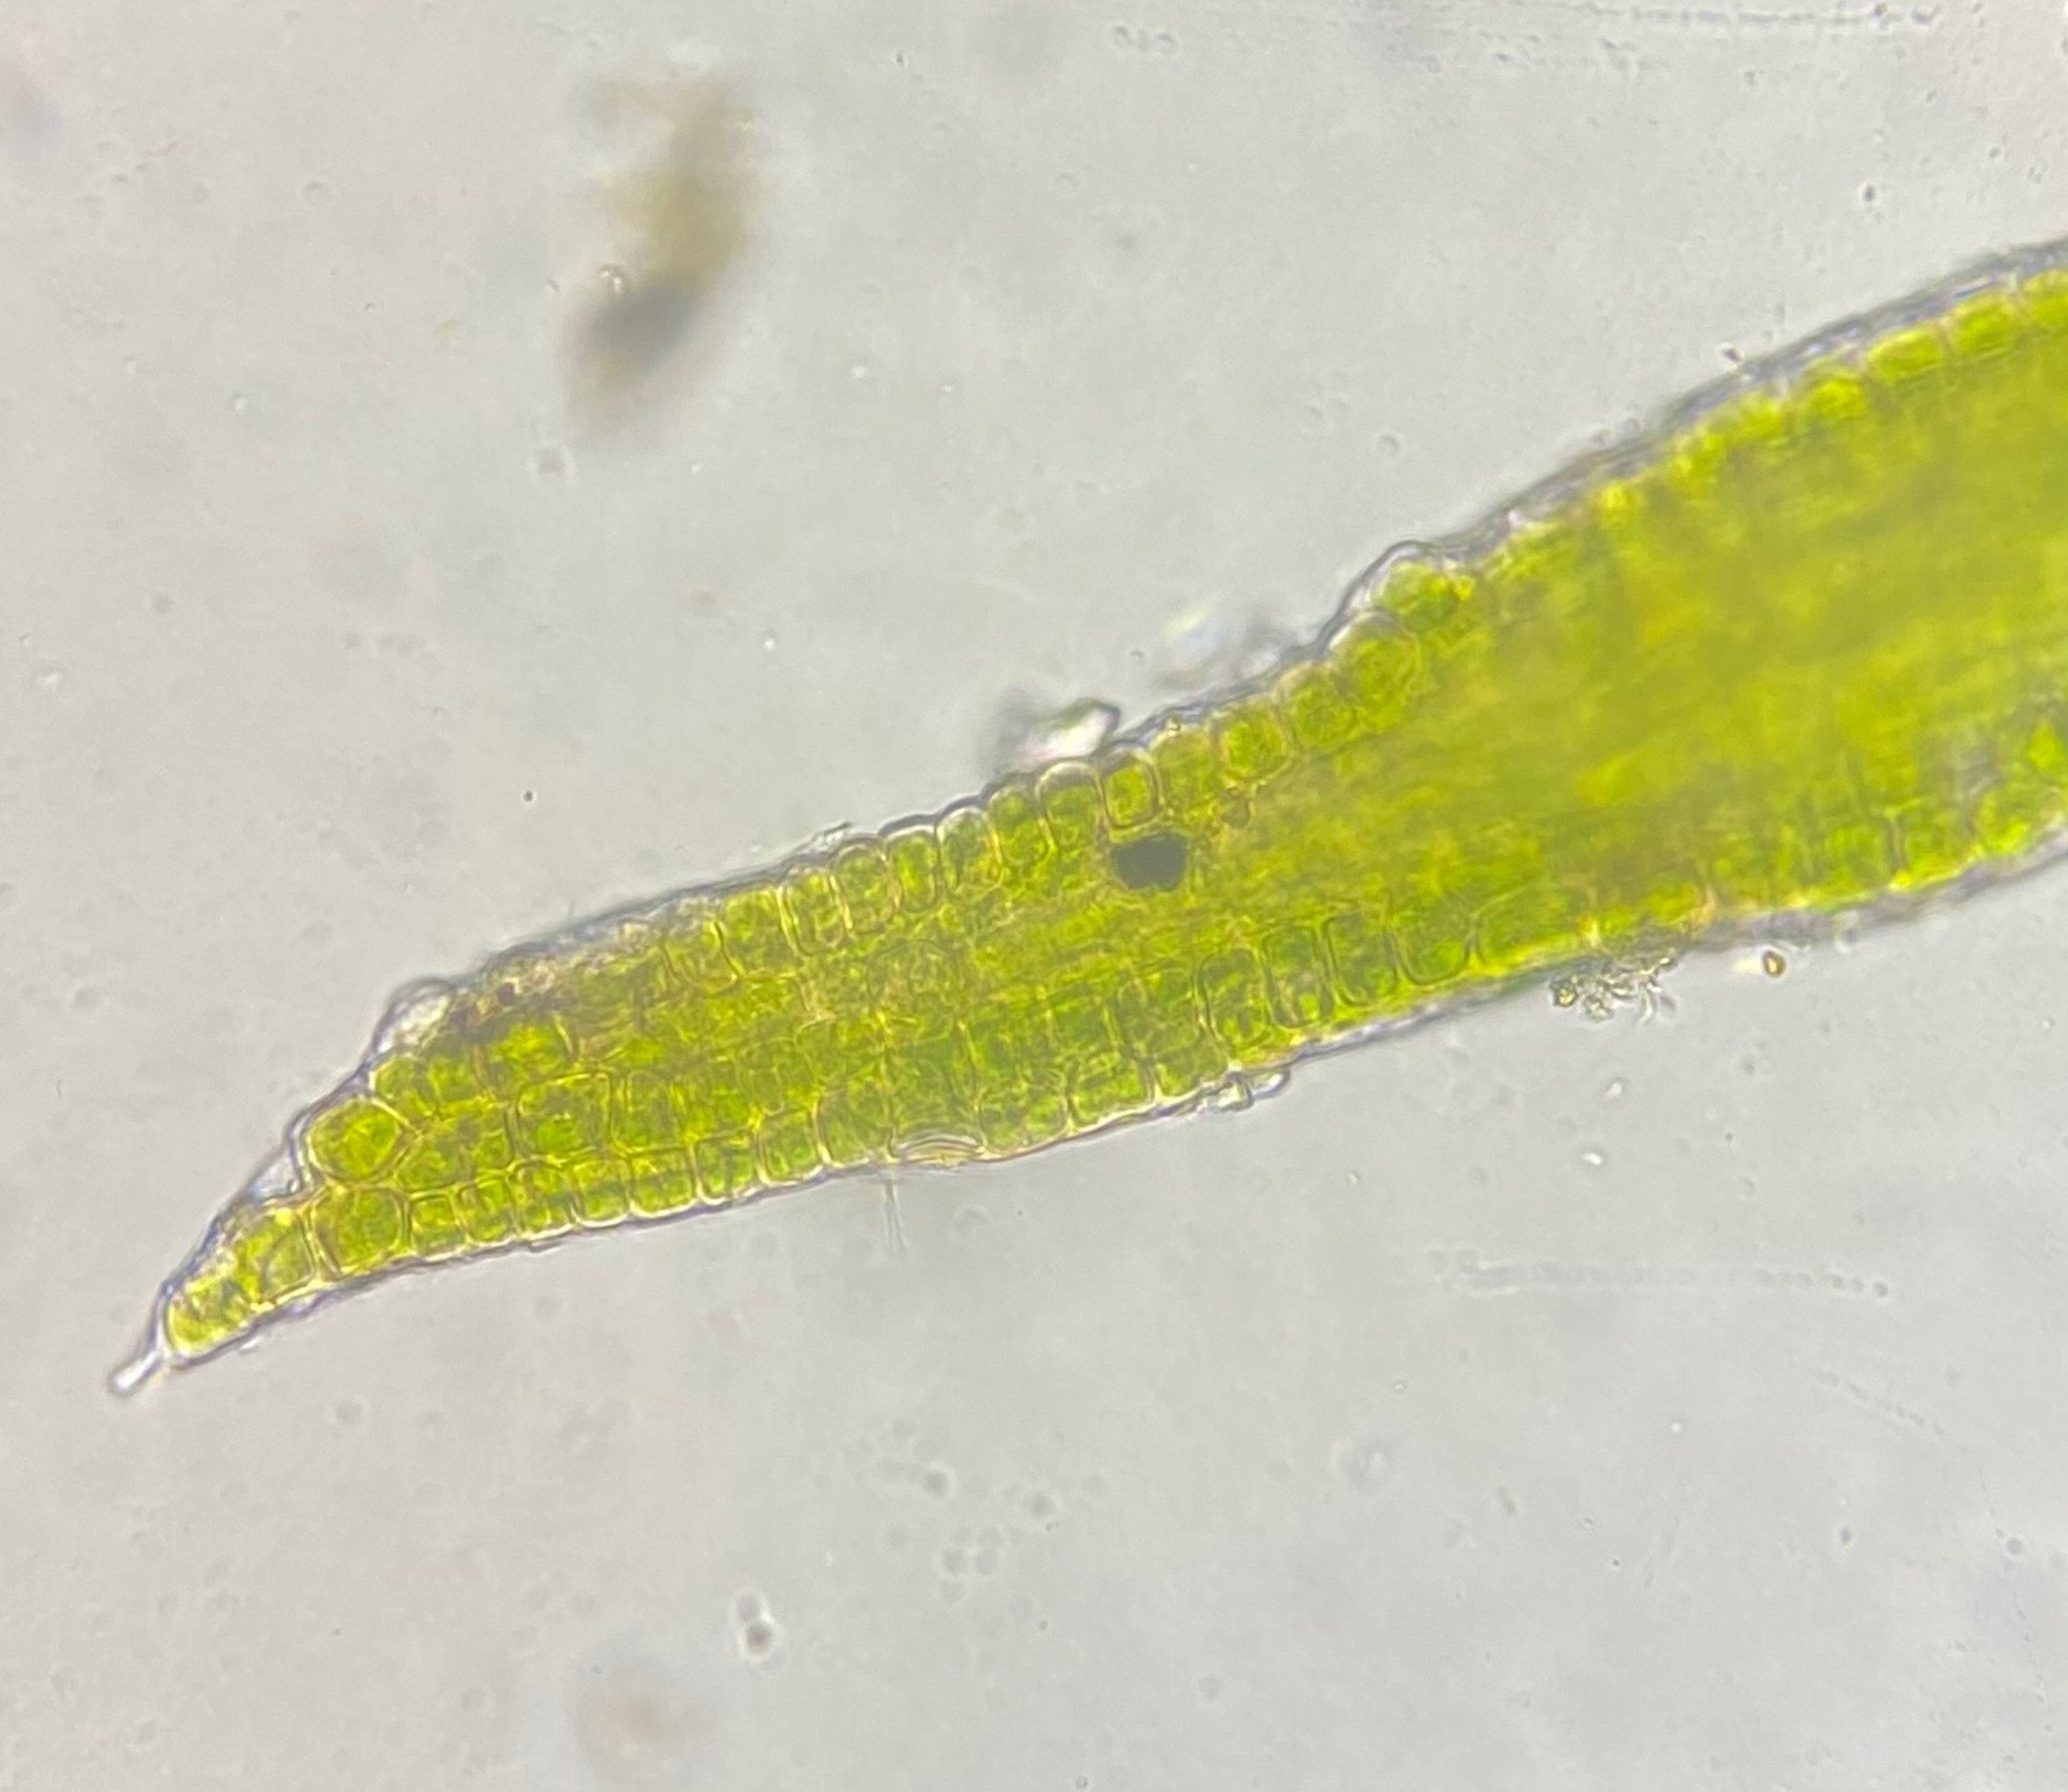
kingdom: Plantae
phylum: Bryophyta
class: Bryopsida
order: Dicranales
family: Rhabdoweisiaceae
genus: Dicranoweisia
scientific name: Dicranoweisia cirrata
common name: Almindelig krøltuemos
